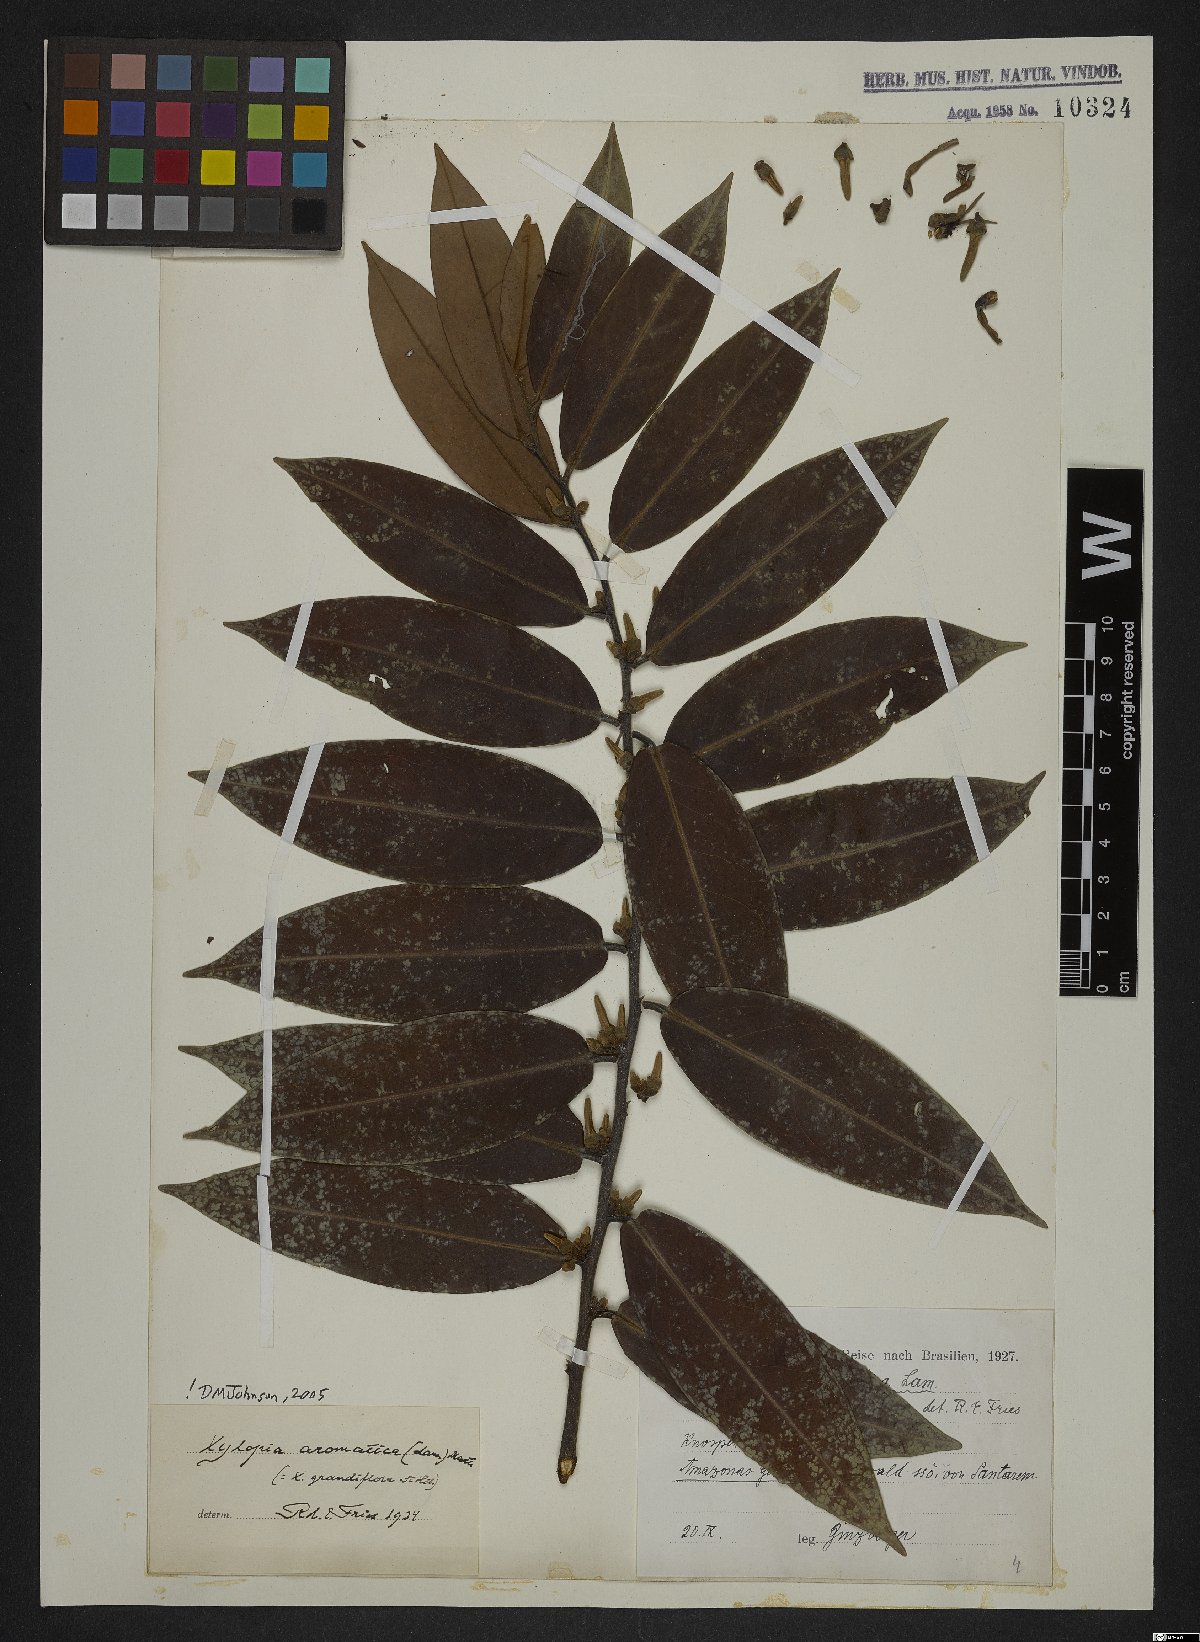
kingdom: Plantae
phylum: Tracheophyta
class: Magnoliopsida
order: Magnoliales
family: Annonaceae
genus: Xylopia
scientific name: Xylopia aromatica
